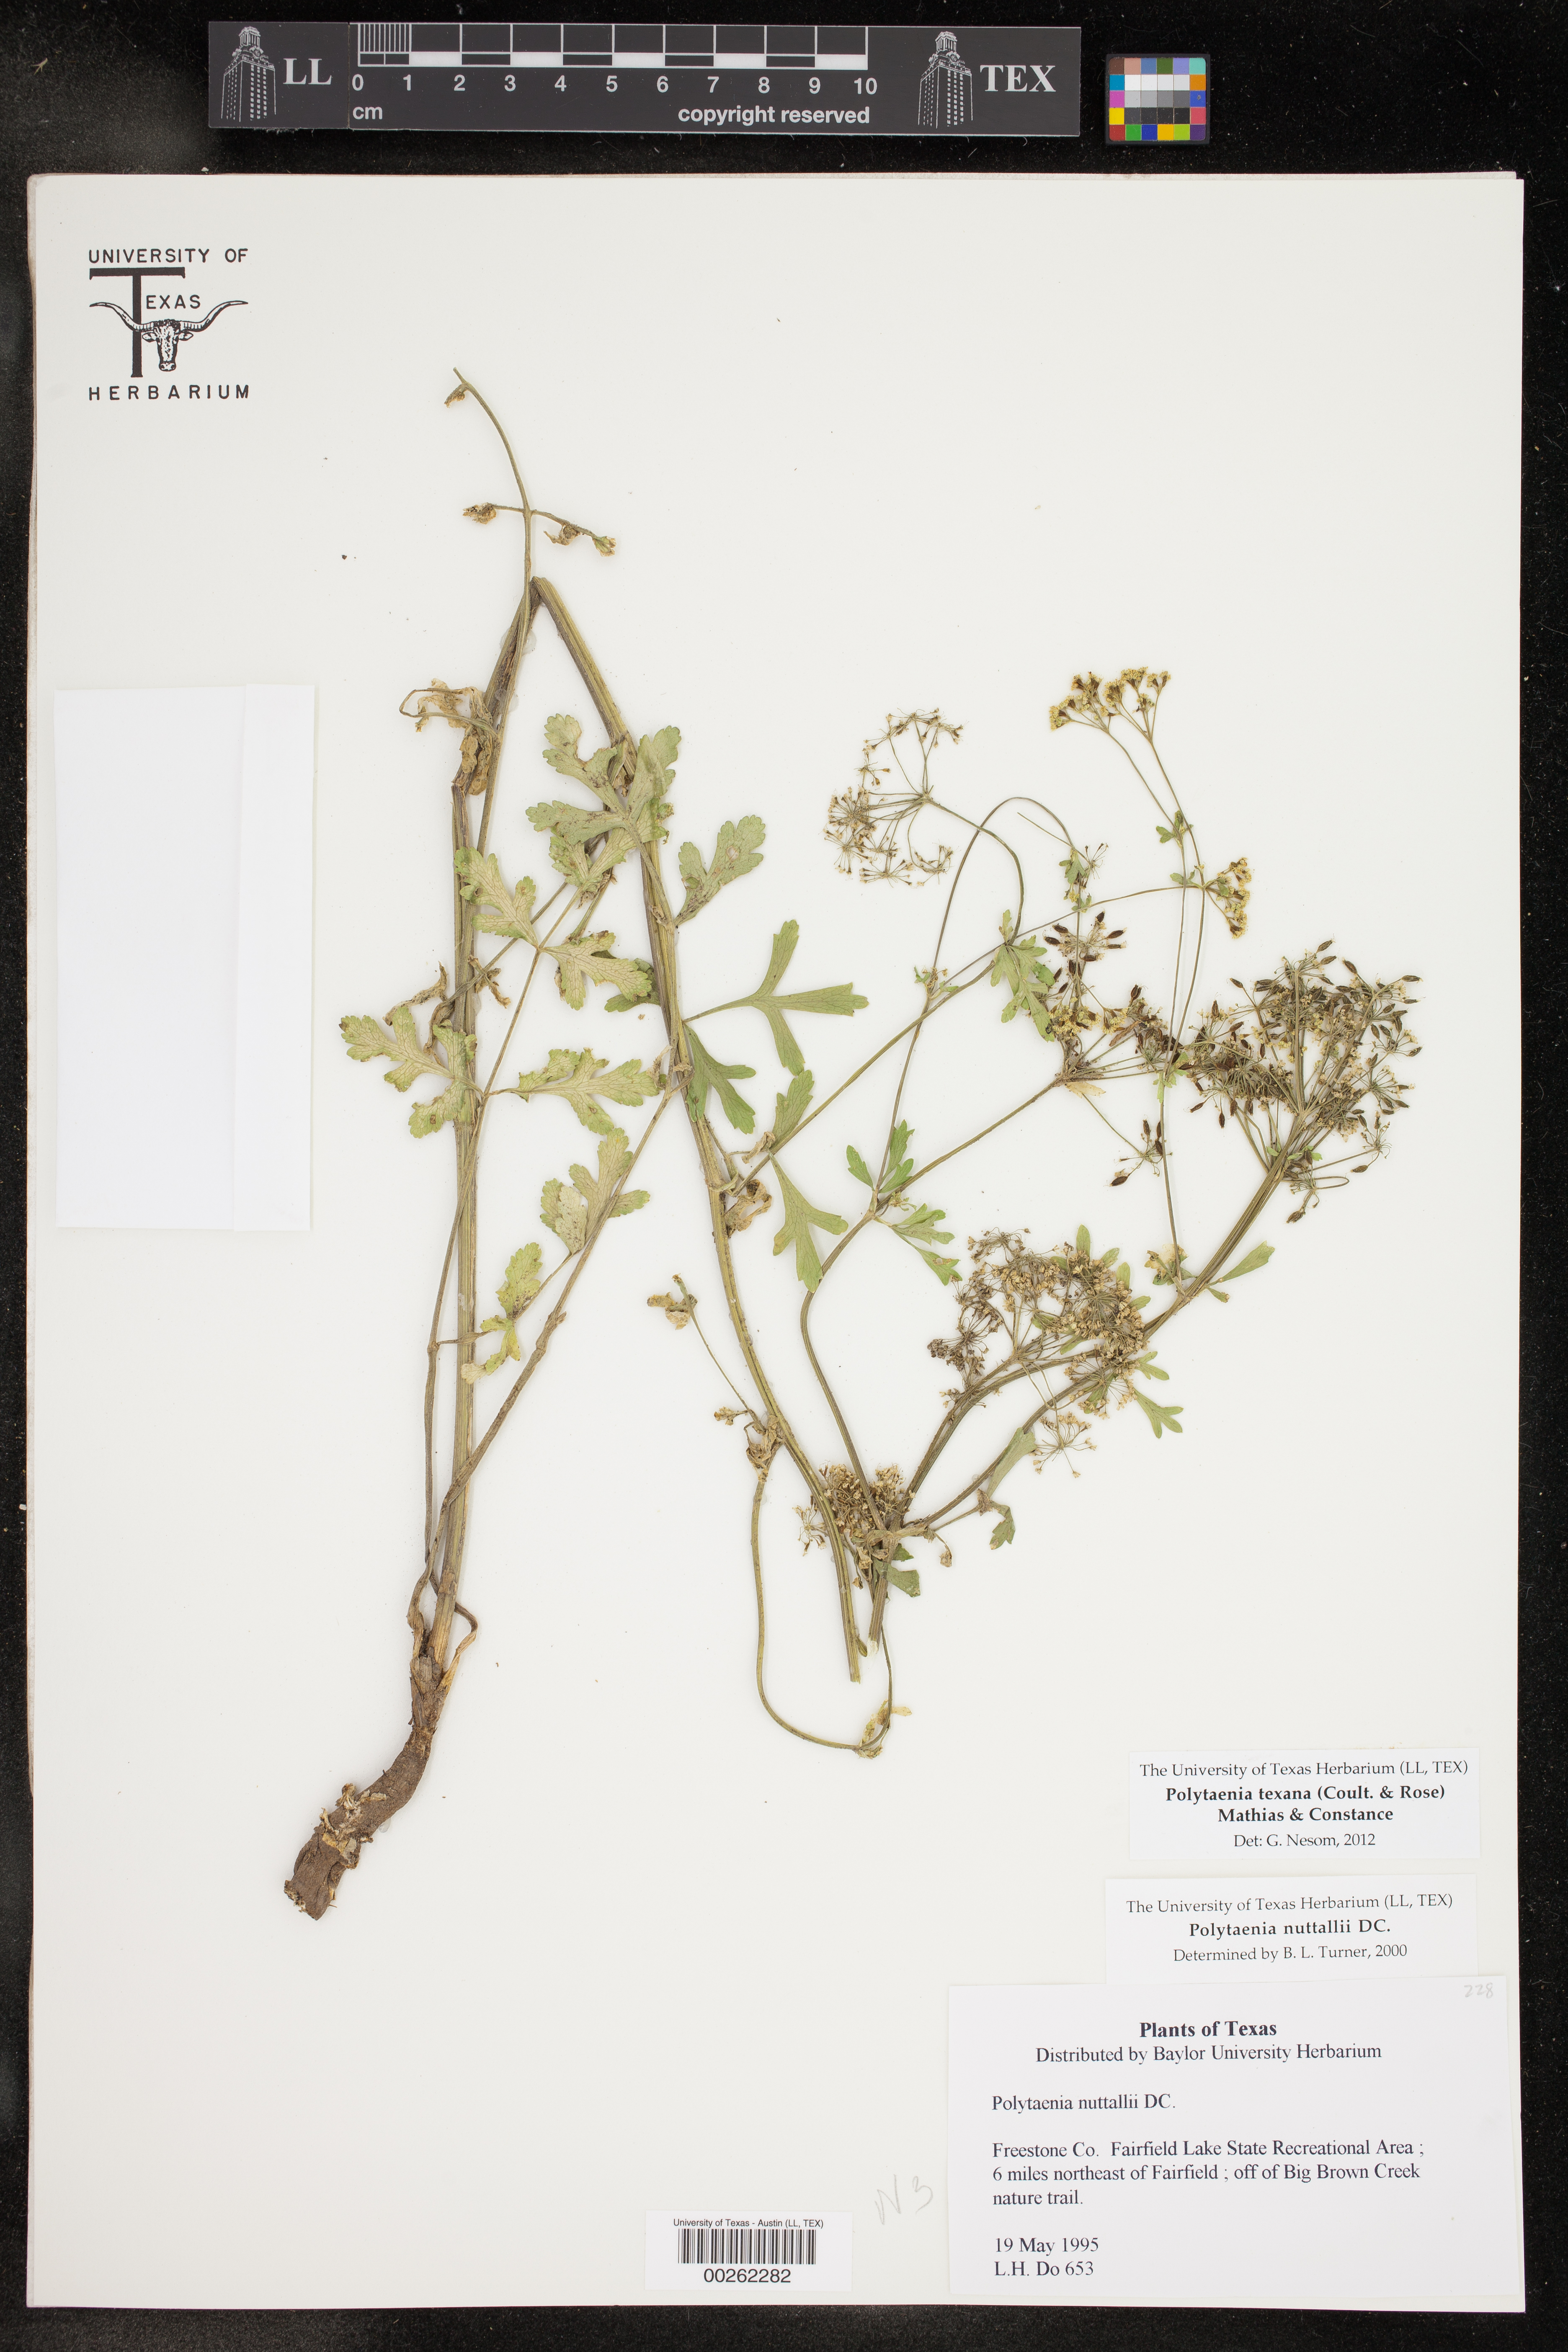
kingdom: Plantae
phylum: Tracheophyta
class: Magnoliopsida
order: Apiales
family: Apiaceae
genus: Polytaenia
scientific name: Polytaenia texana
